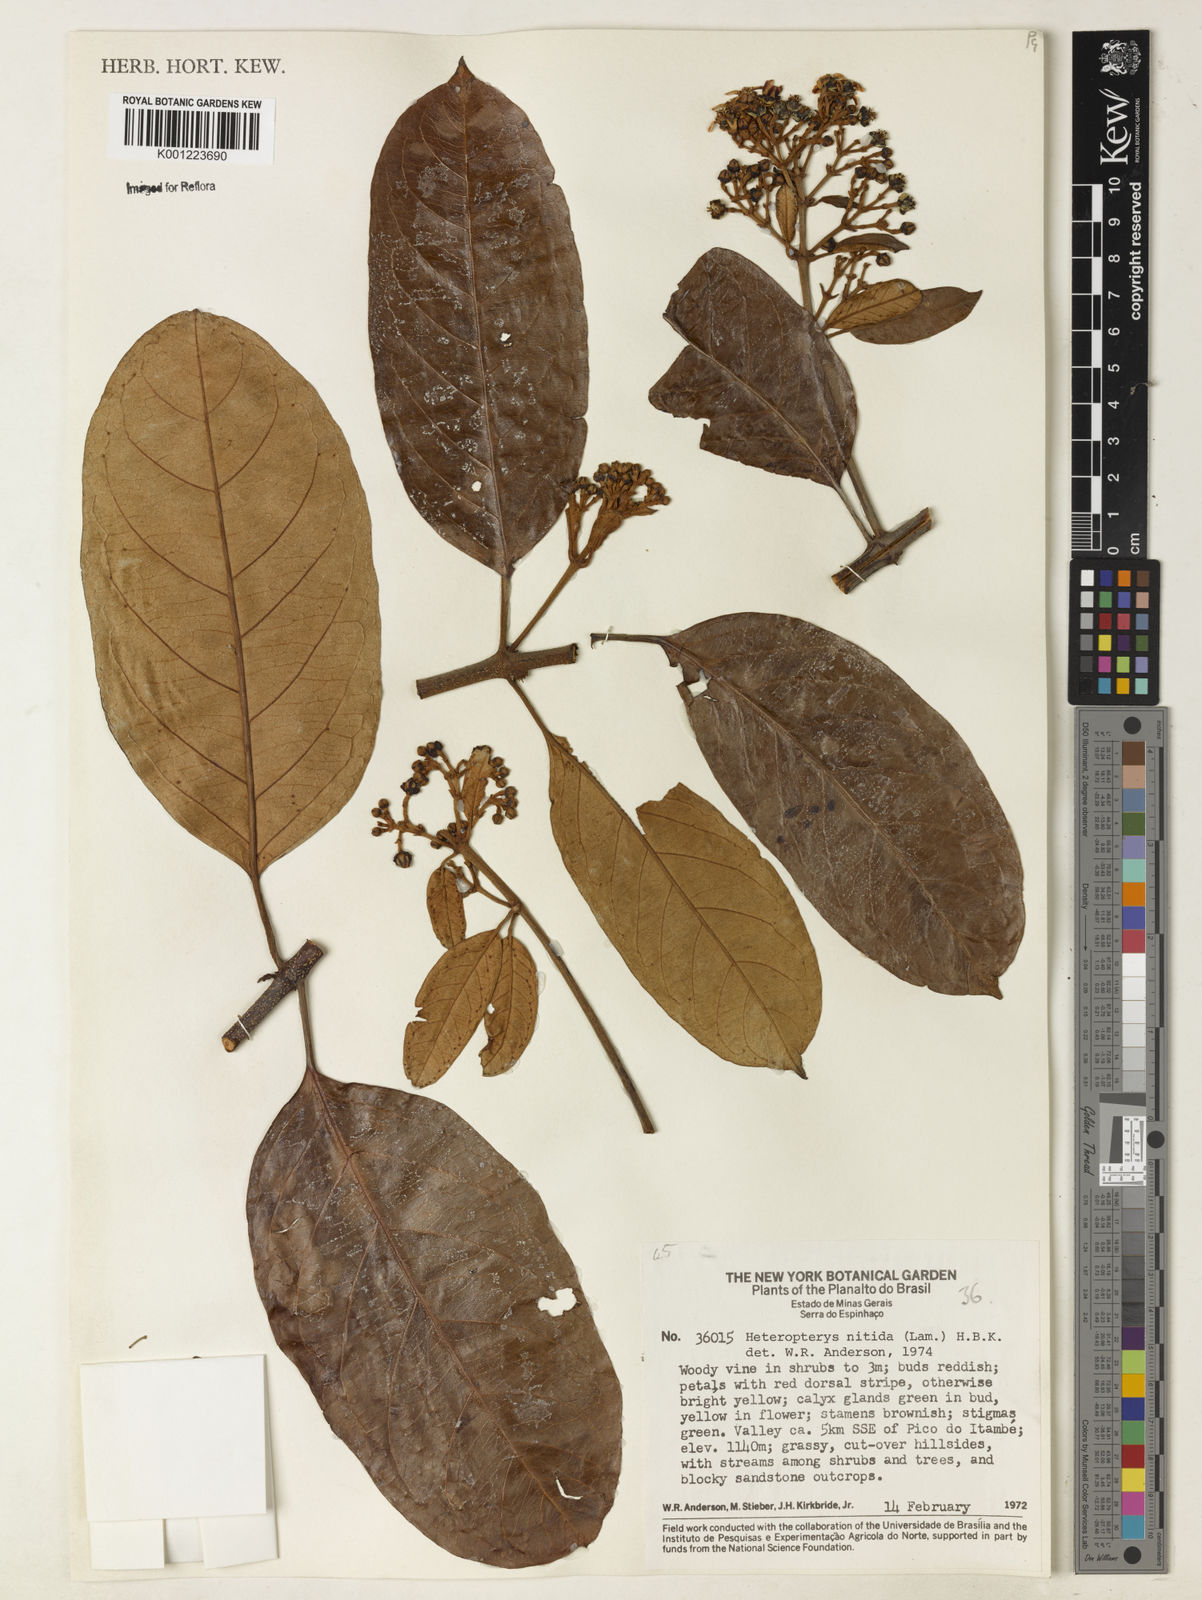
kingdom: Plantae
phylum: Tracheophyta
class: Magnoliopsida
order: Malpighiales
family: Malpighiaceae
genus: Heteropterys
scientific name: Heteropterys nitida
